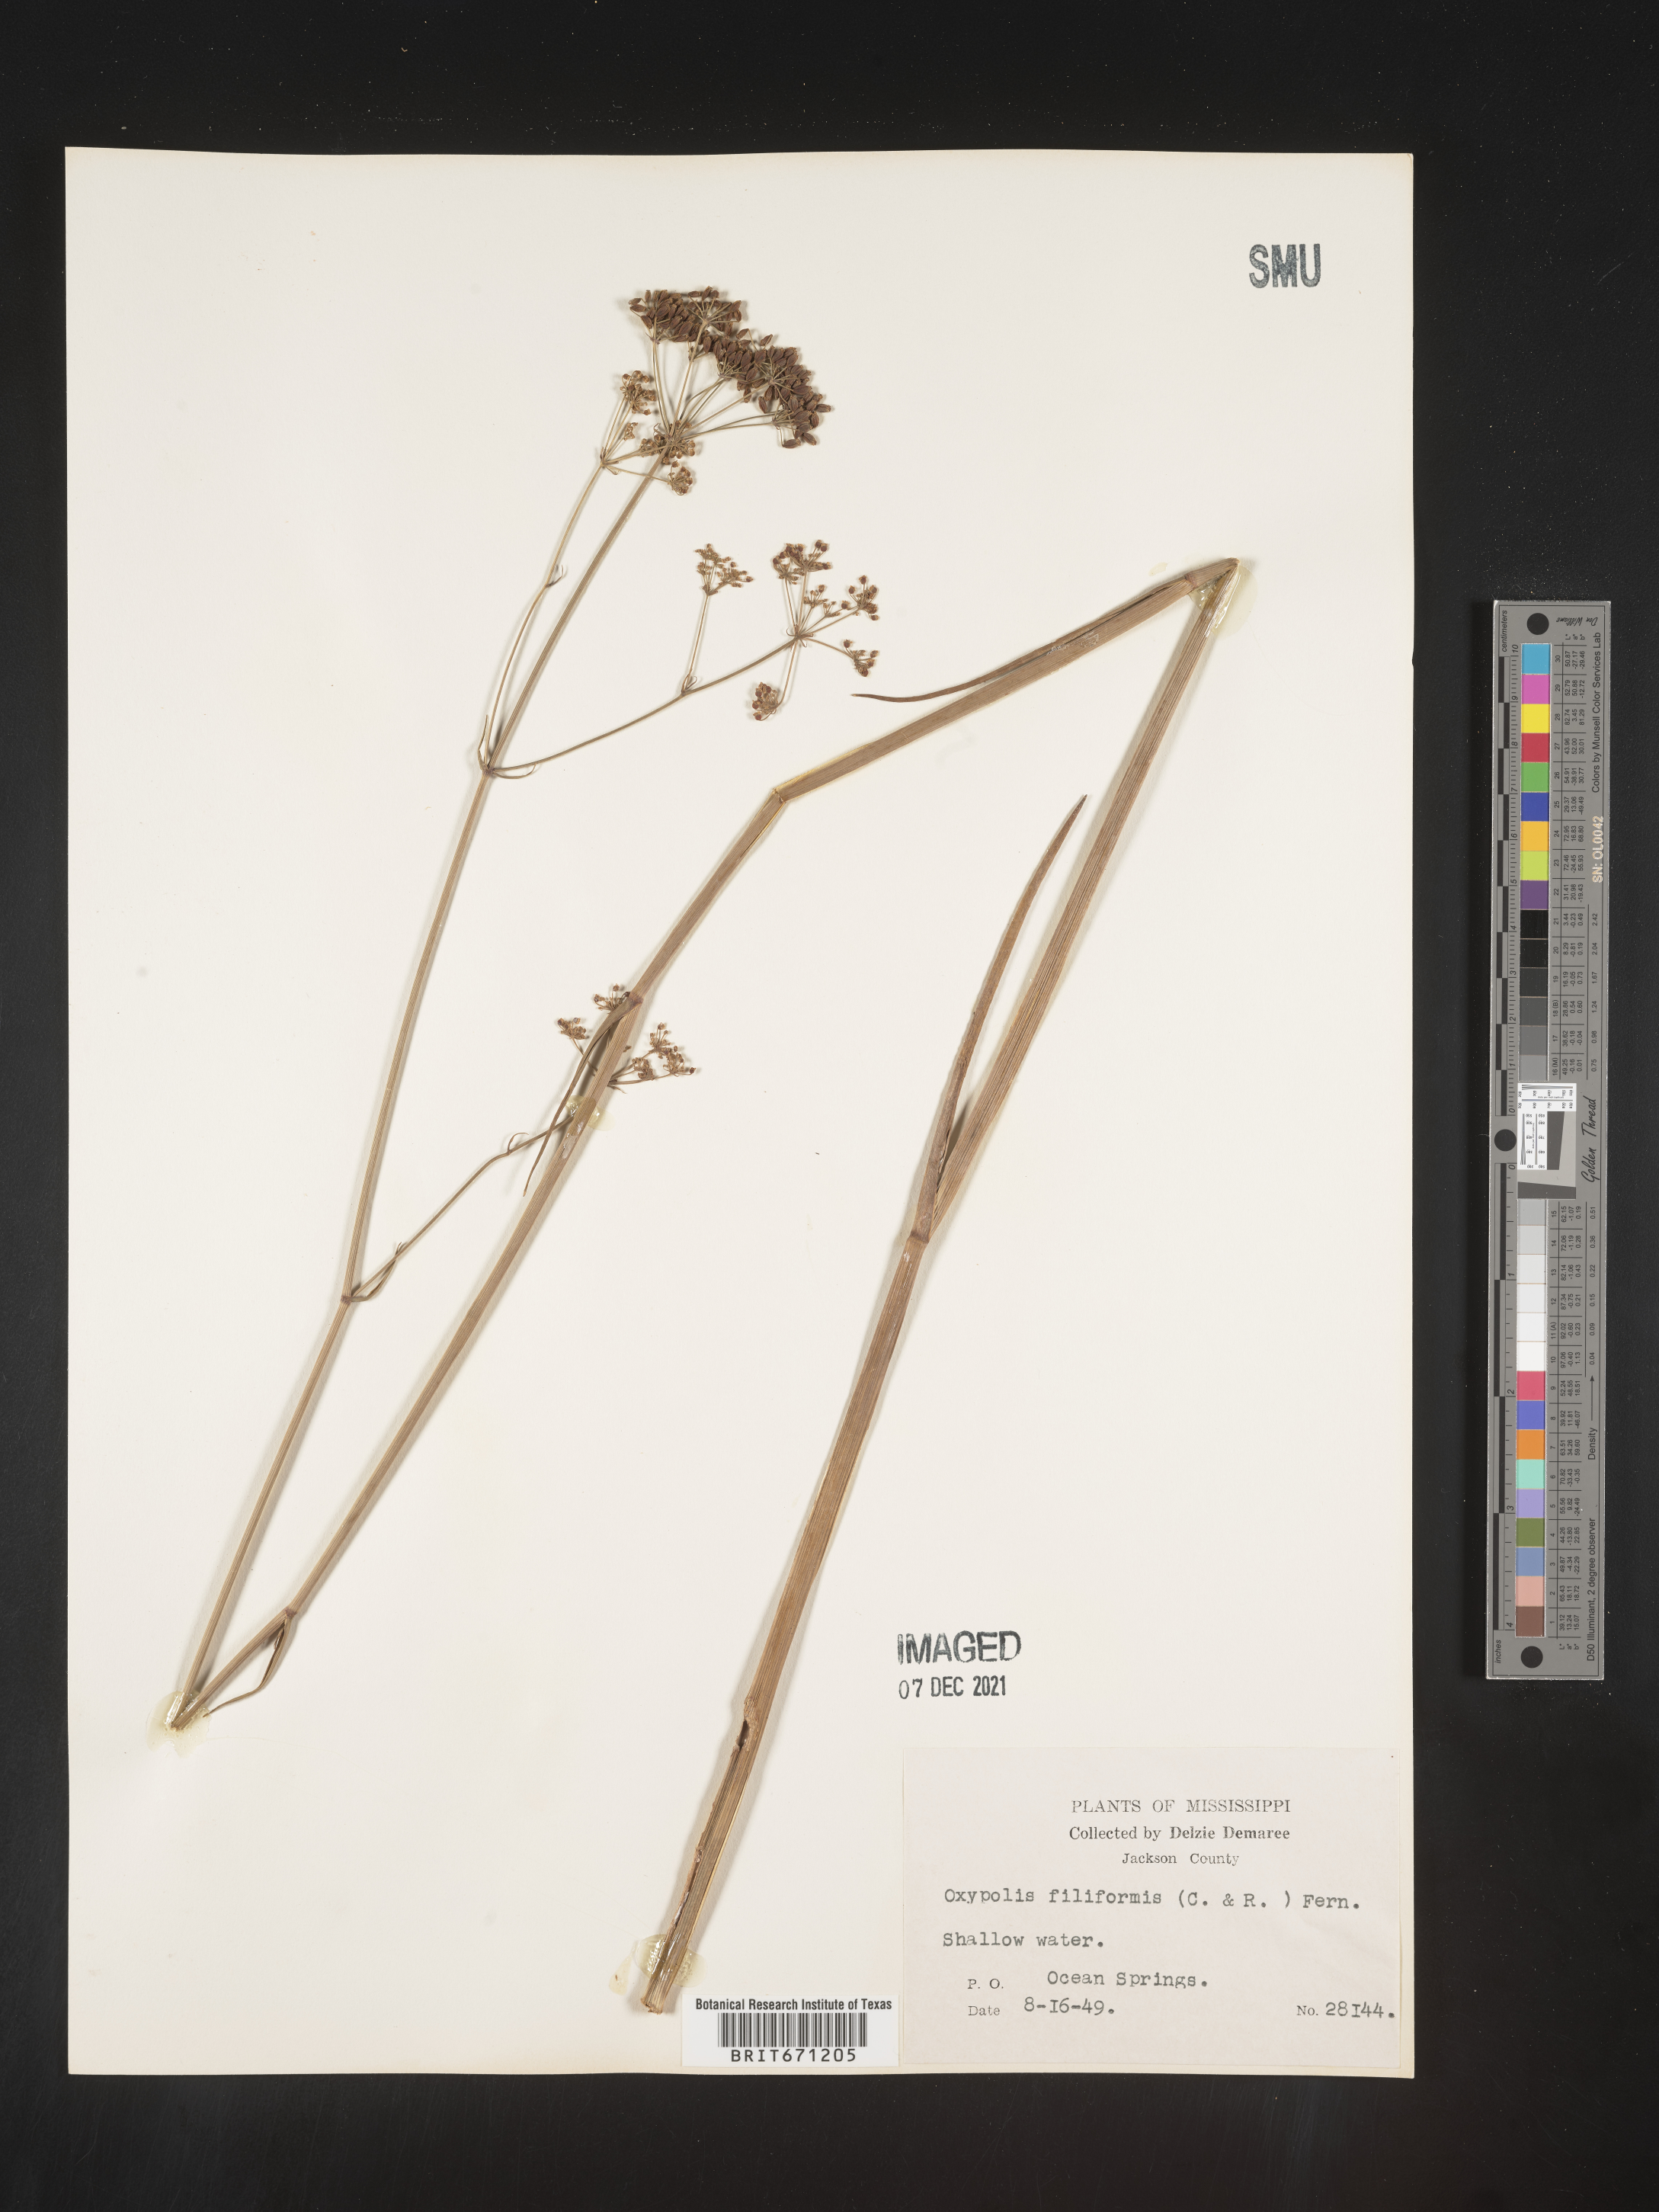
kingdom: Plantae
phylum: Tracheophyta
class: Magnoliopsida
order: Apiales
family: Apiaceae
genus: Tiedemannia
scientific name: Tiedemannia filiformis
